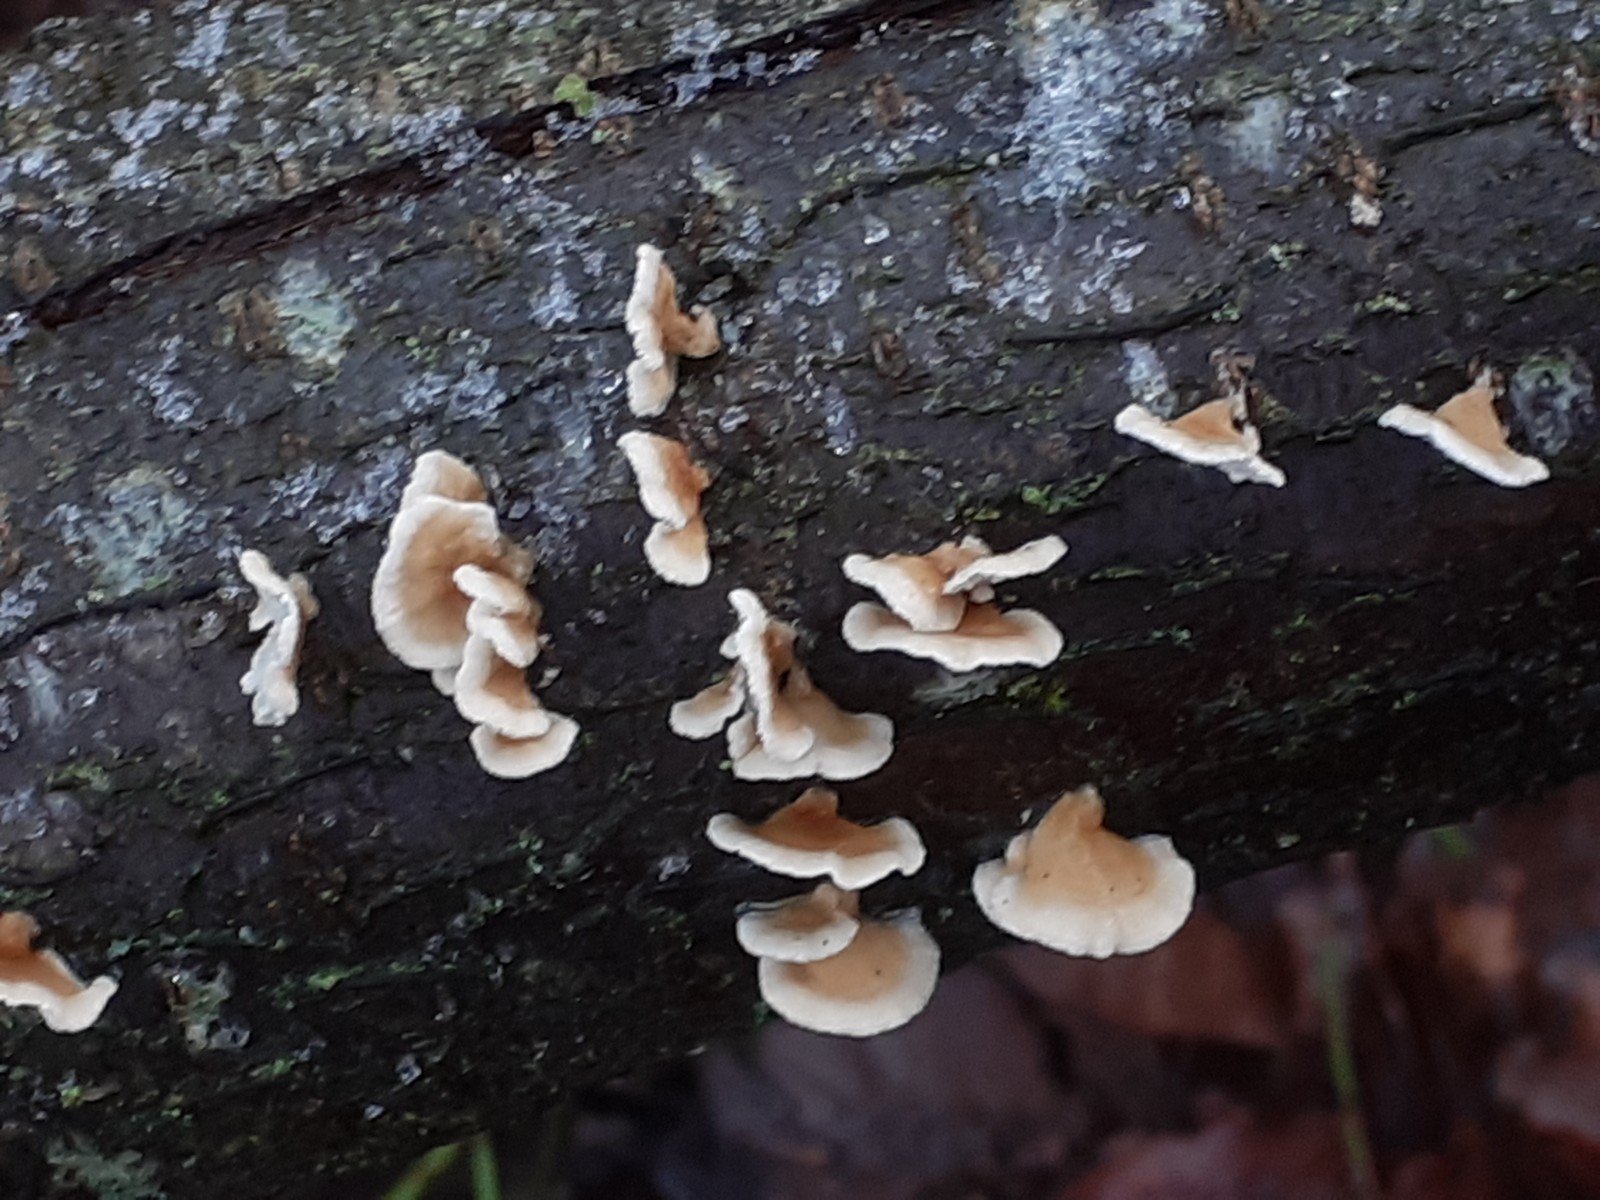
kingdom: Fungi
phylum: Basidiomycota
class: Agaricomycetes
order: Amylocorticiales
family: Amylocorticiaceae
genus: Plicaturopsis
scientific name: Plicaturopsis crispa
